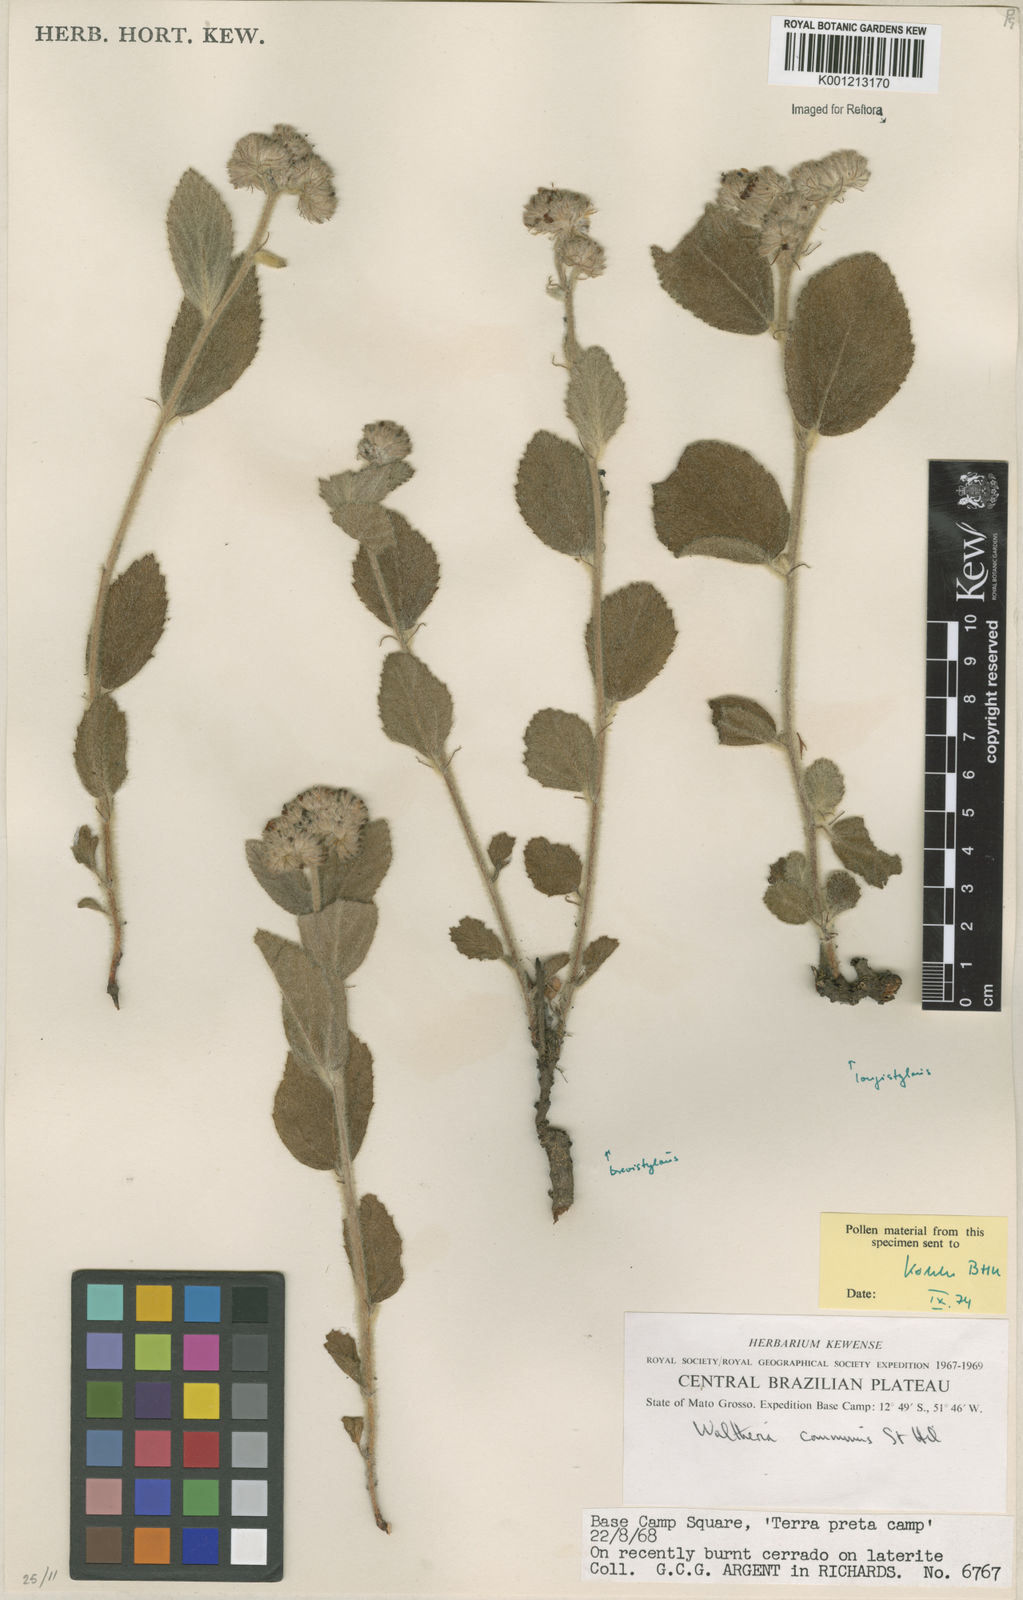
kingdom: Plantae
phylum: Tracheophyta
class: Magnoliopsida
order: Malvales
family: Malvaceae
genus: Waltheria
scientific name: Waltheria communis
